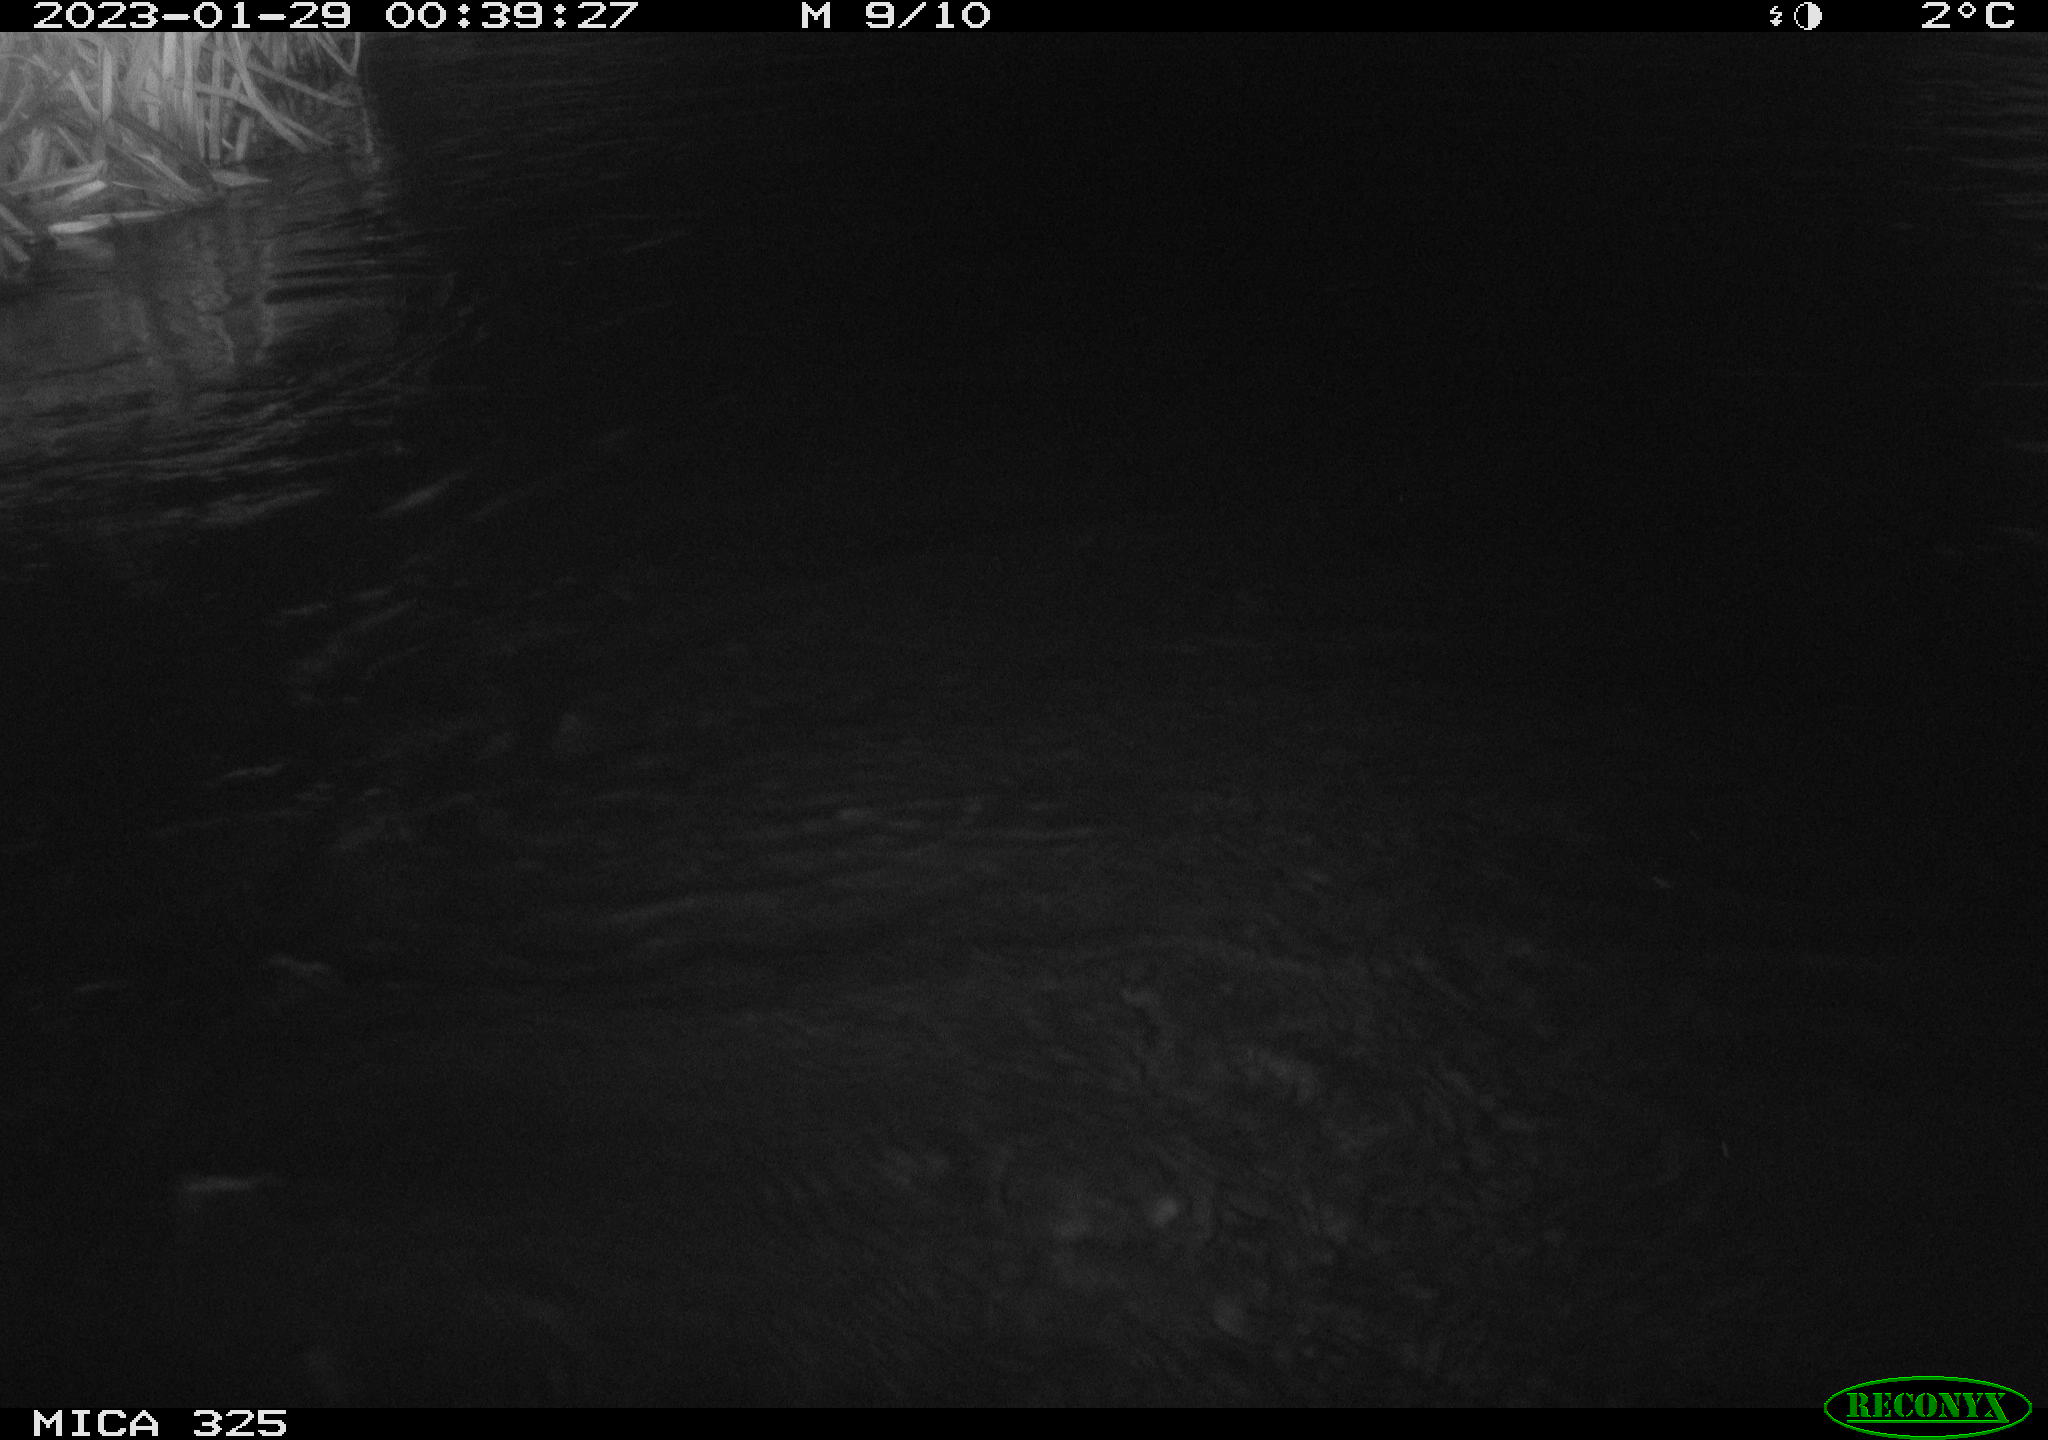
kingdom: Animalia
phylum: Chordata
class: Mammalia
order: Rodentia
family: Myocastoridae
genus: Myocastor
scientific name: Myocastor coypus
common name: Coypu
